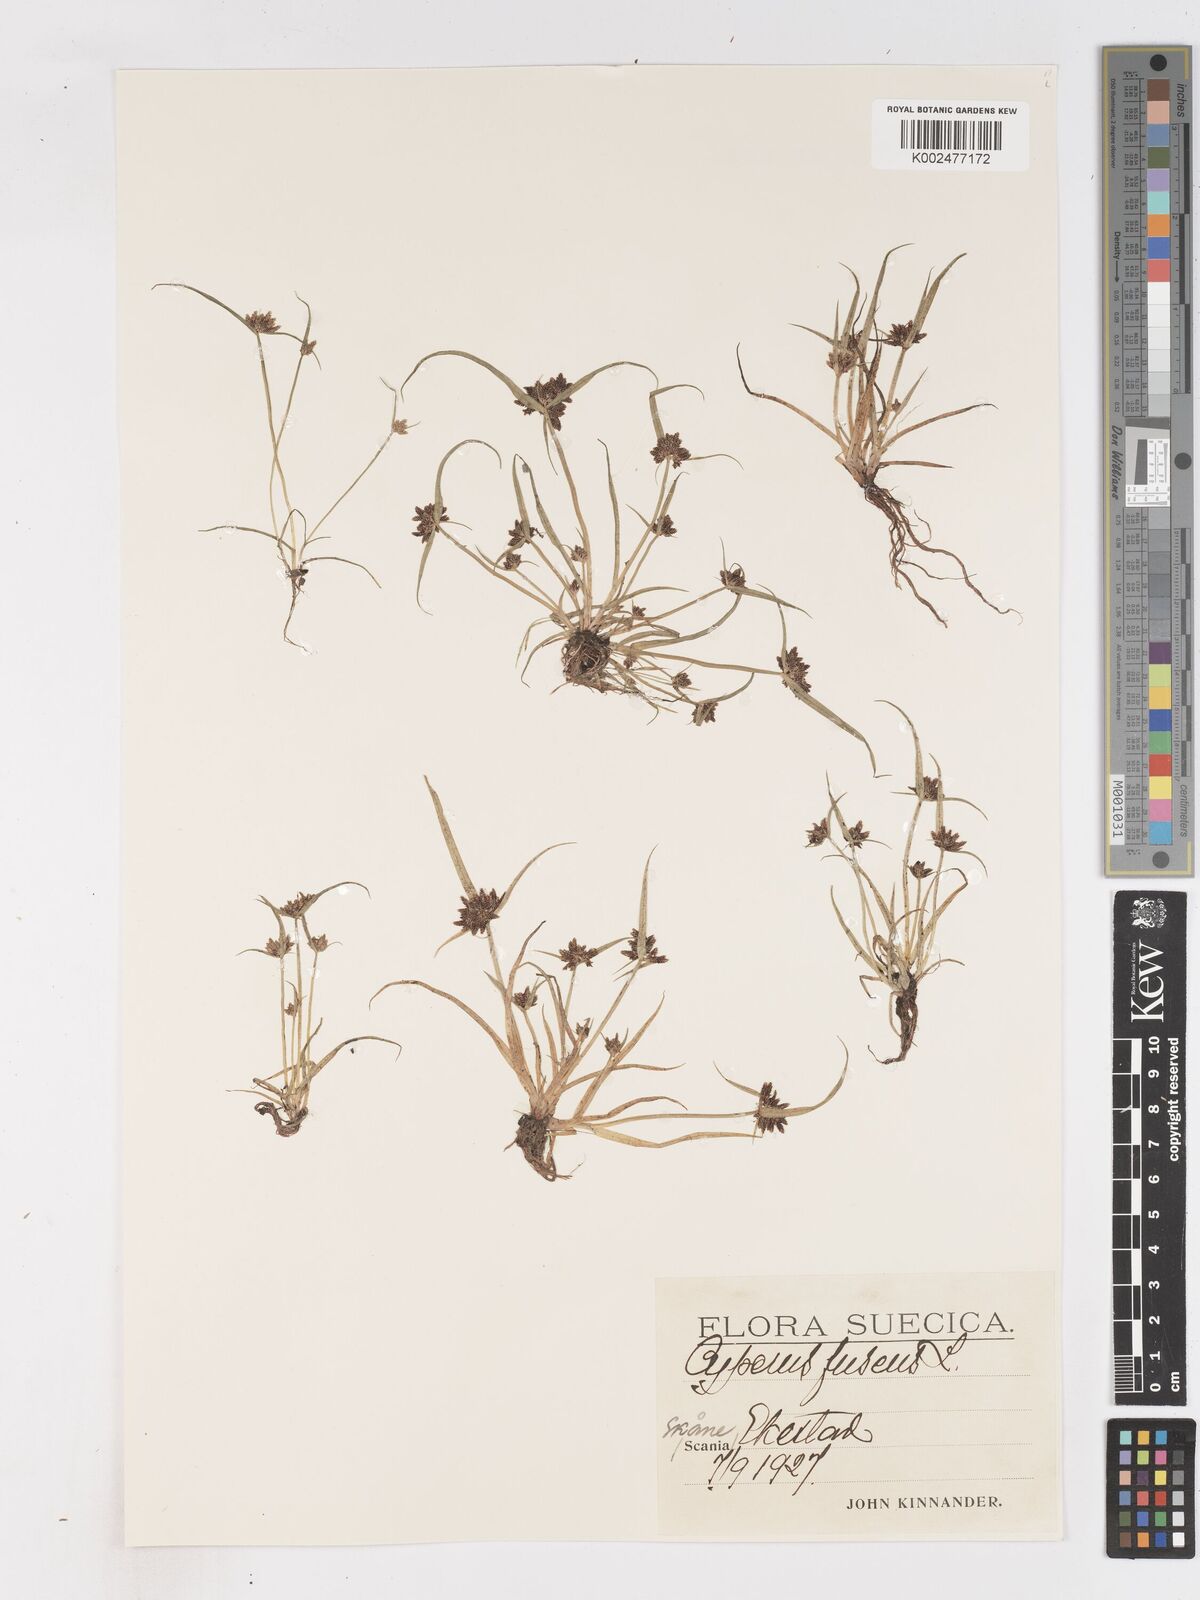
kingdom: Plantae
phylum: Tracheophyta
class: Liliopsida
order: Poales
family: Cyperaceae
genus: Cyperus
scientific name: Cyperus fuscus
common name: Brown galingale
